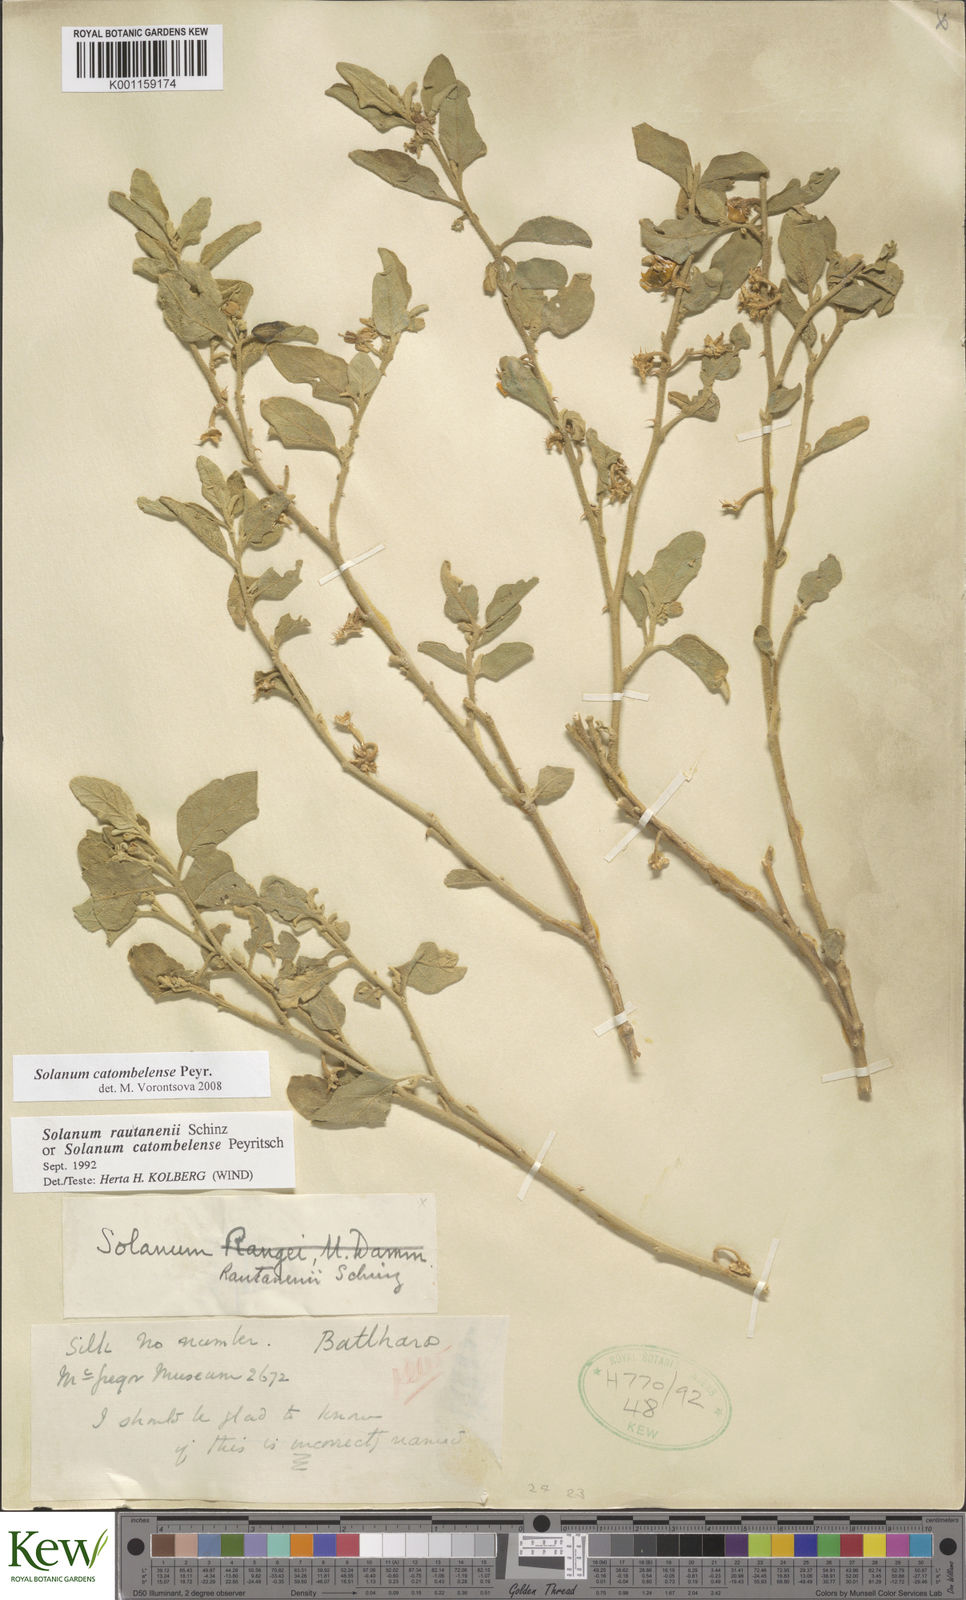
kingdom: Plantae
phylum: Tracheophyta
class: Magnoliopsida
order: Solanales
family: Solanaceae
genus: Solanum
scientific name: Solanum catombelense
